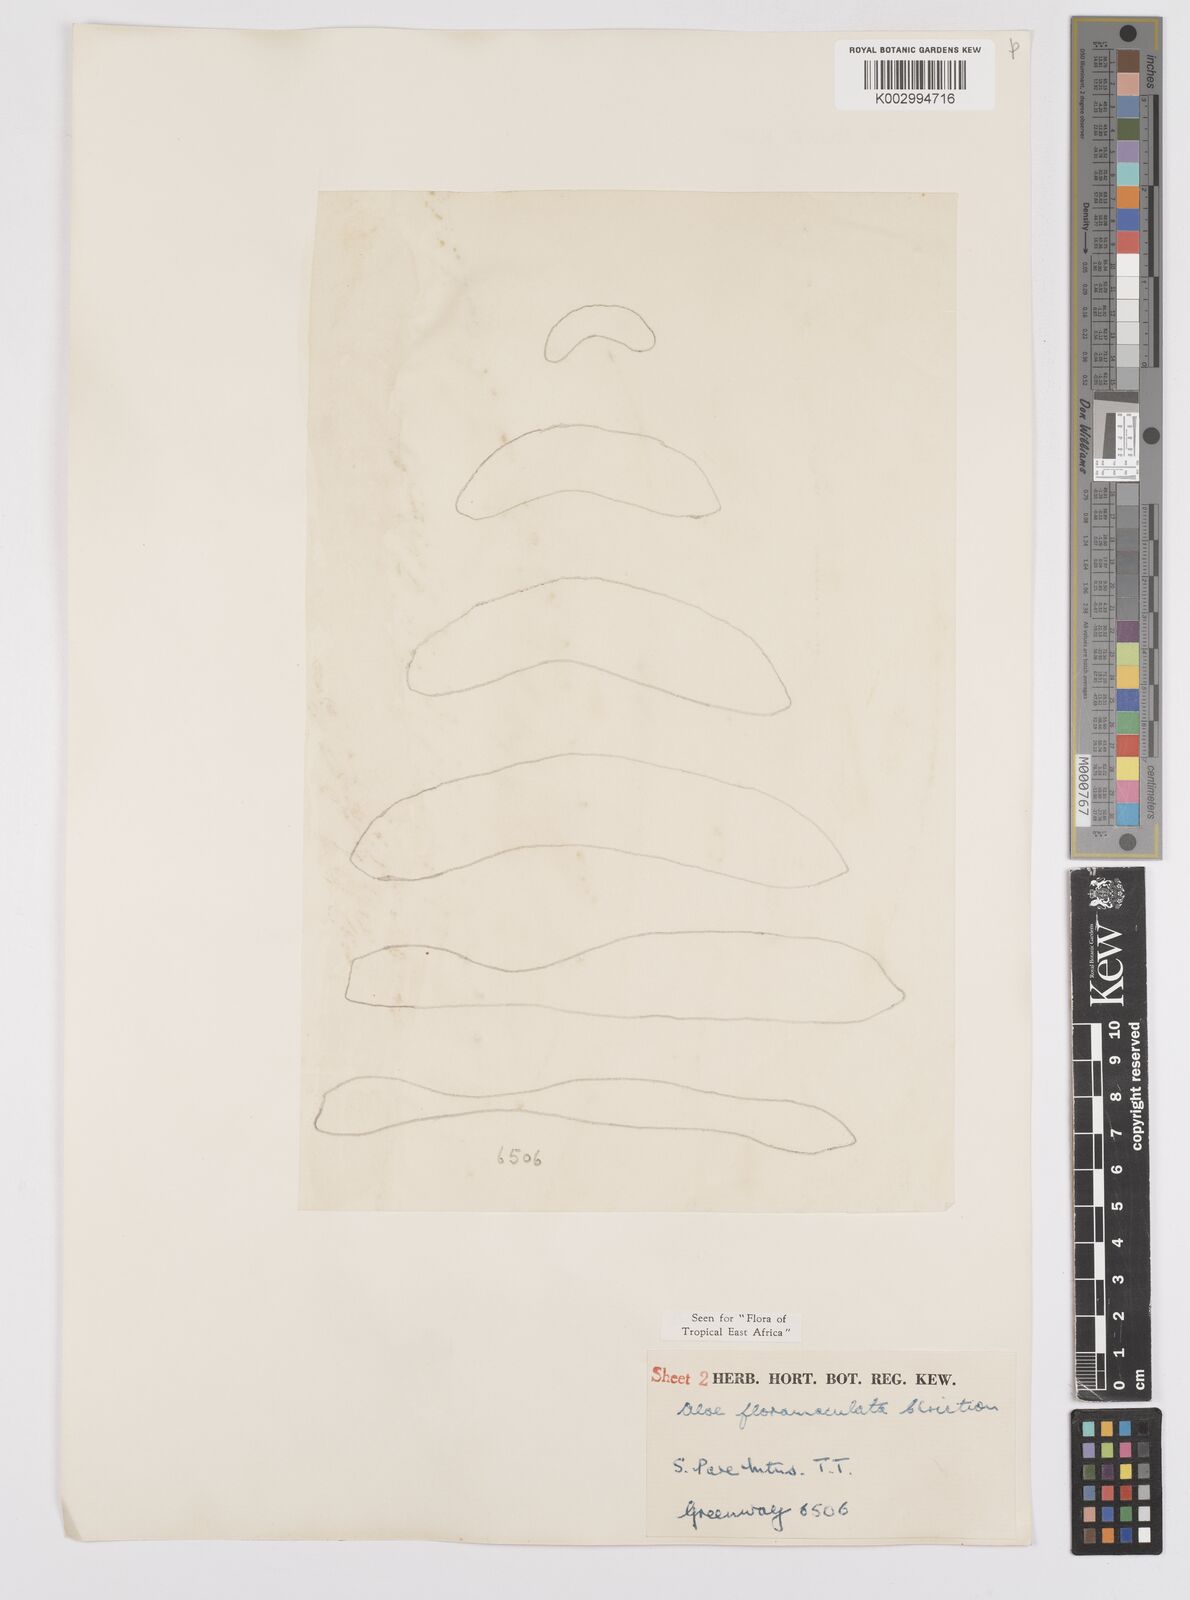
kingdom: Plantae
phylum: Tracheophyta
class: Liliopsida
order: Asparagales
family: Asphodelaceae
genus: Aloe
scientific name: Aloe secundiflora
